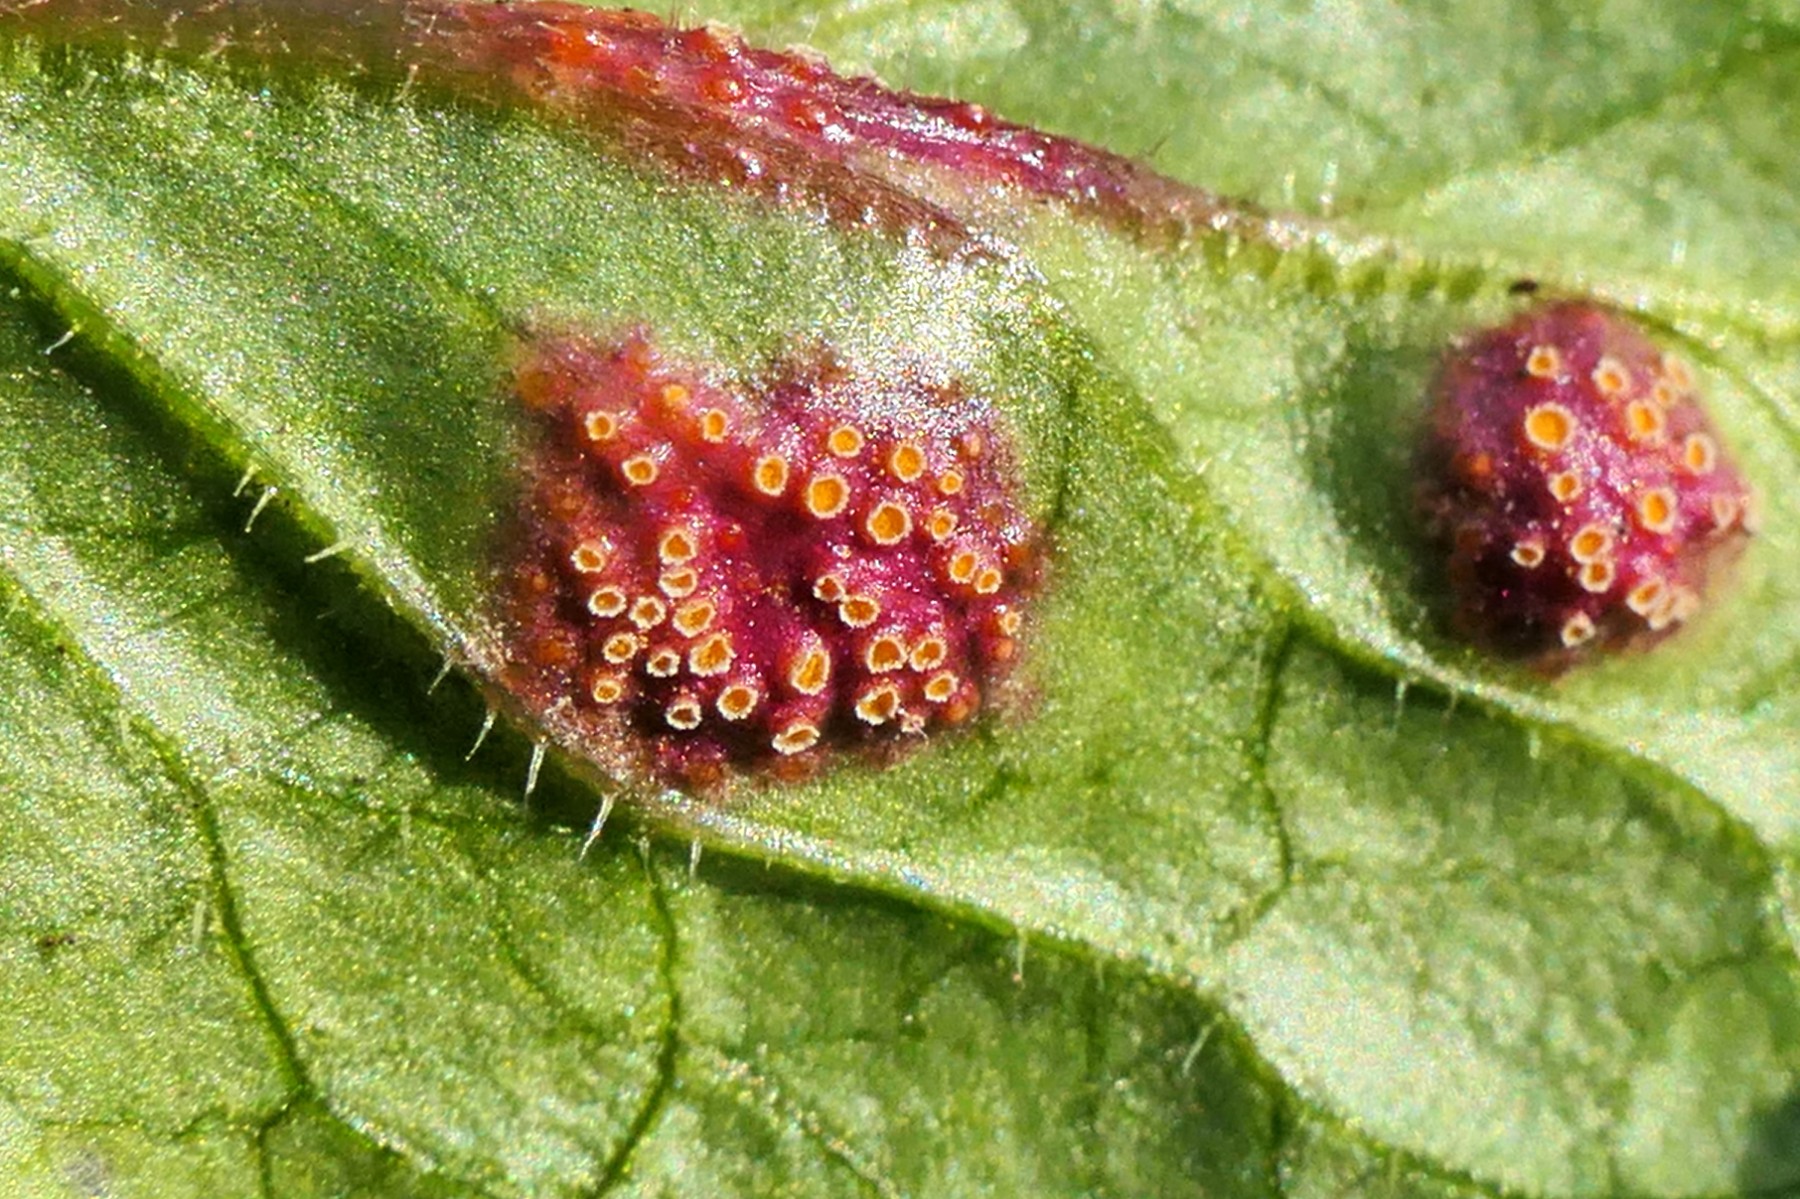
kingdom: Fungi
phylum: Basidiomycota
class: Pucciniomycetes
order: Pucciniales
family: Pucciniaceae
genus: Puccinia
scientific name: Puccinia lapsanae
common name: Nipplewort rust
